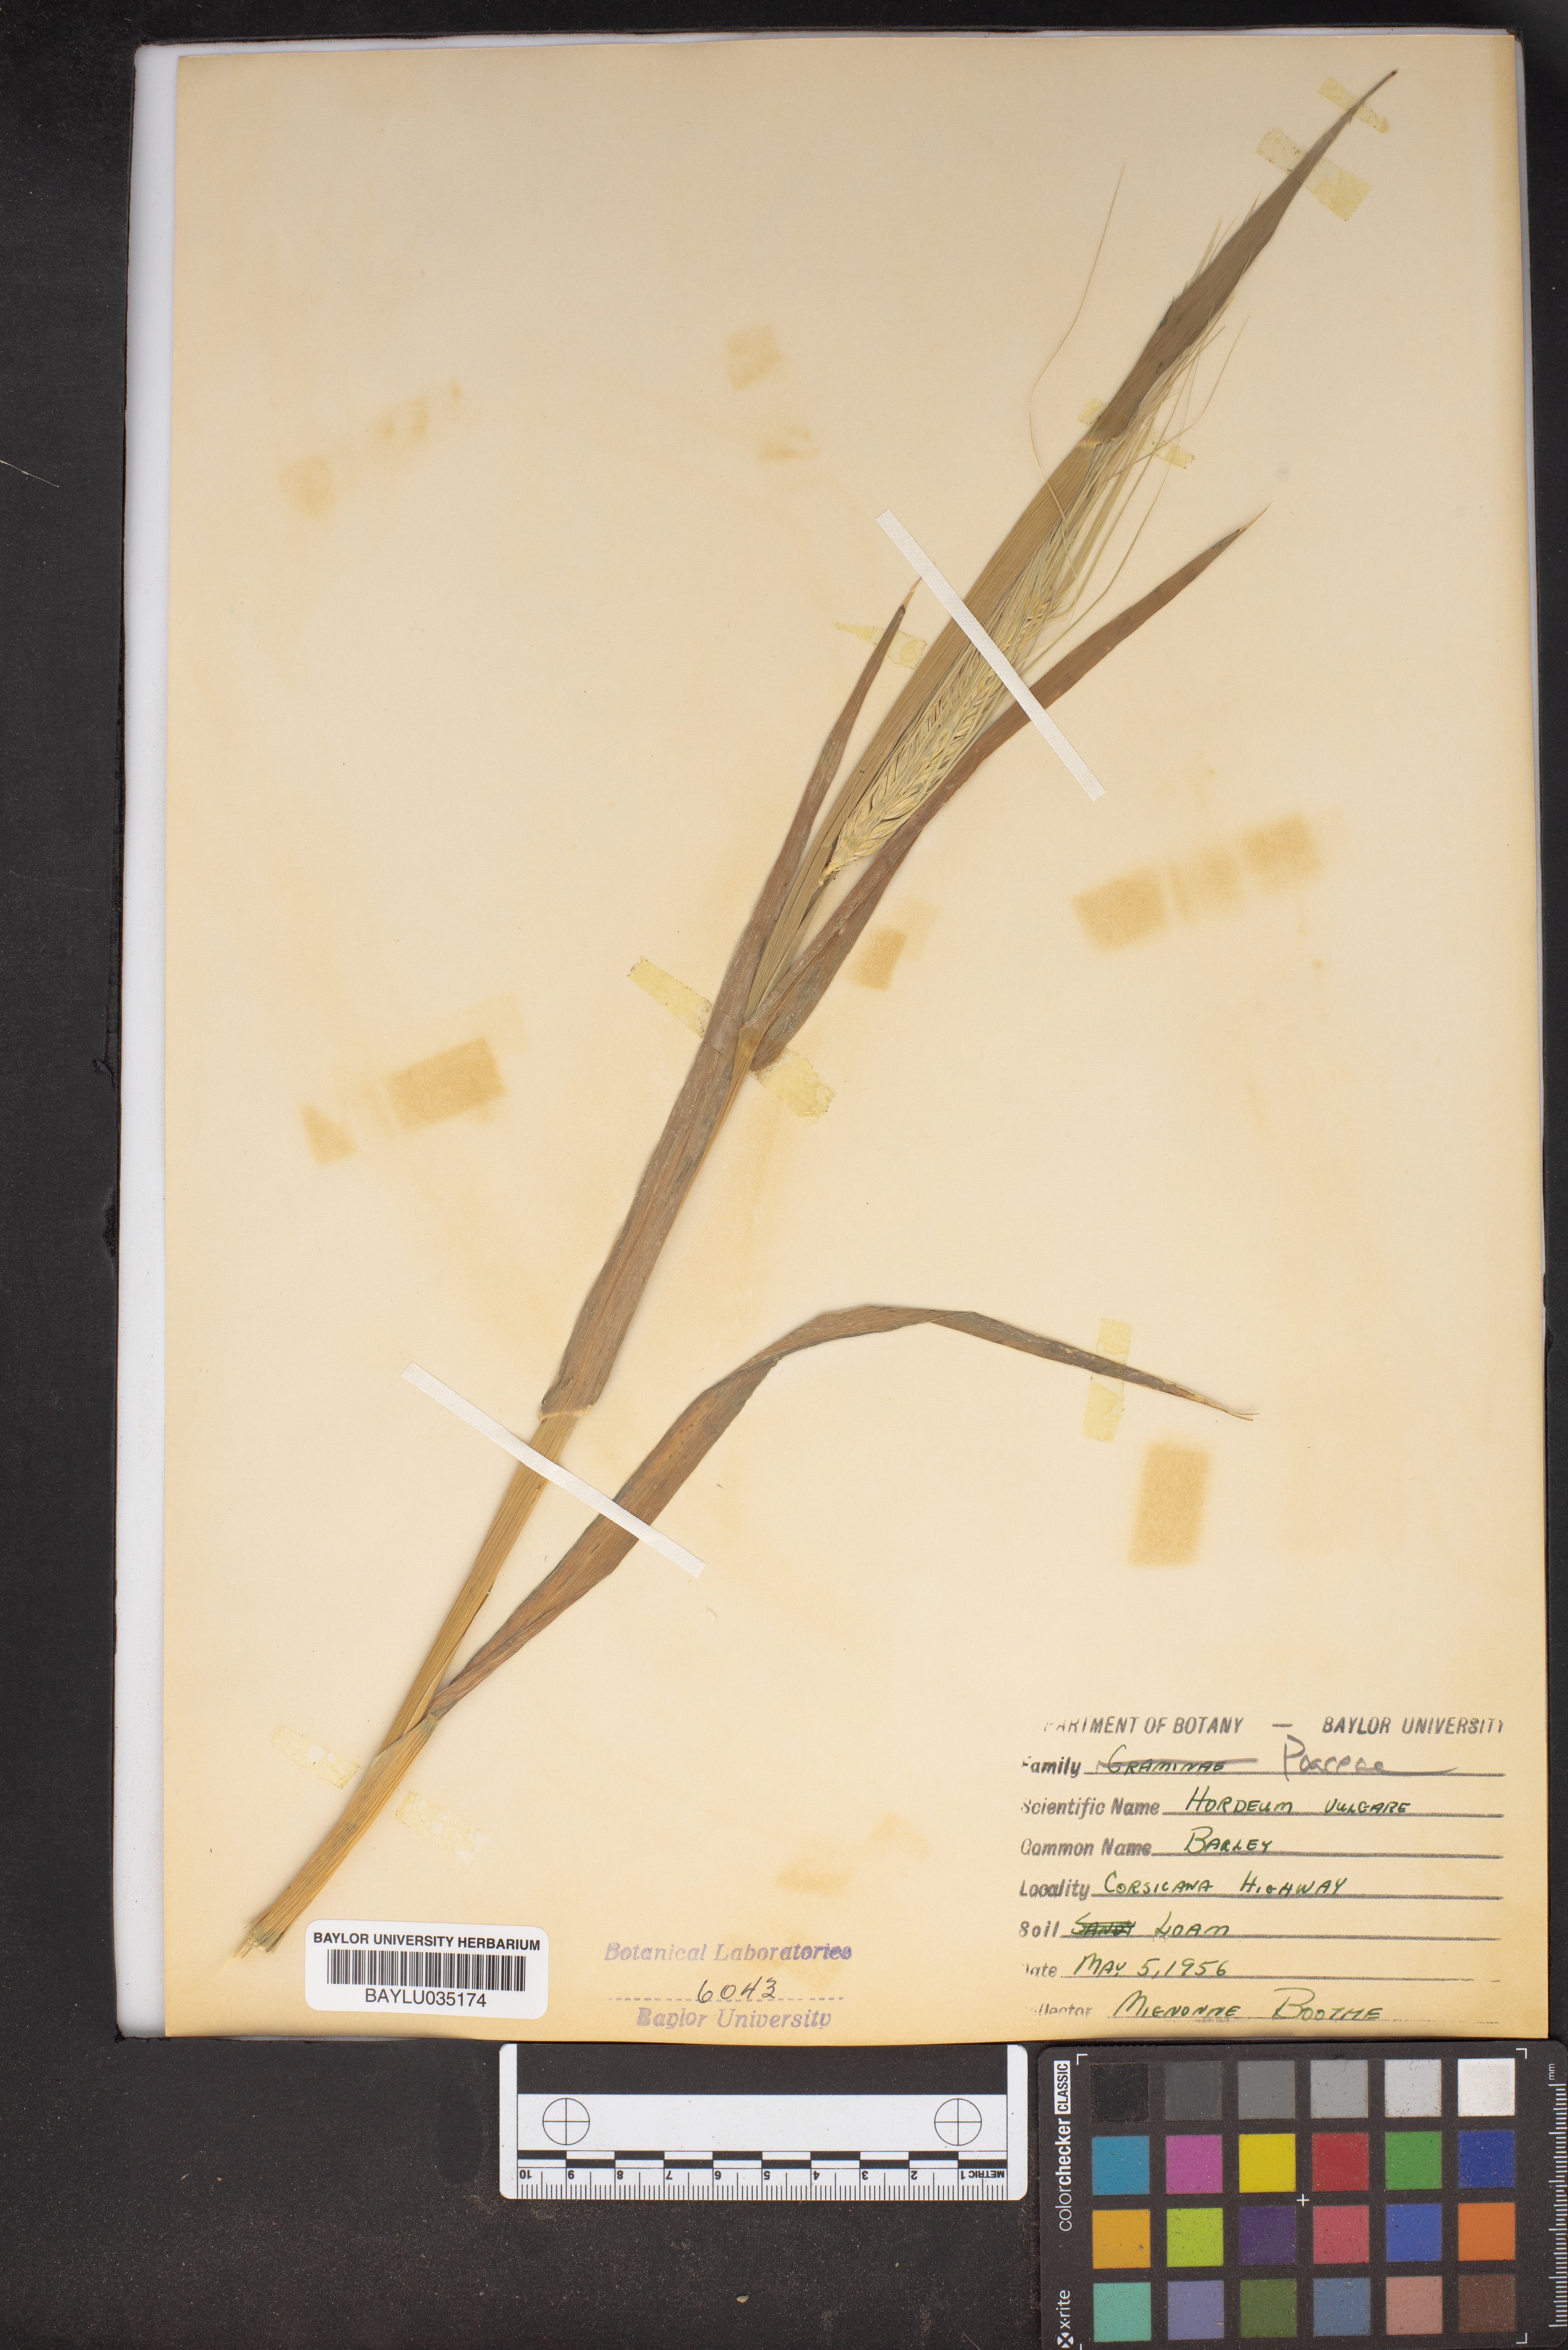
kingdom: Plantae
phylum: Tracheophyta
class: Liliopsida
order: Poales
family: Poaceae
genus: Hordeum
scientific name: Hordeum vulgare
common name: Common barley
